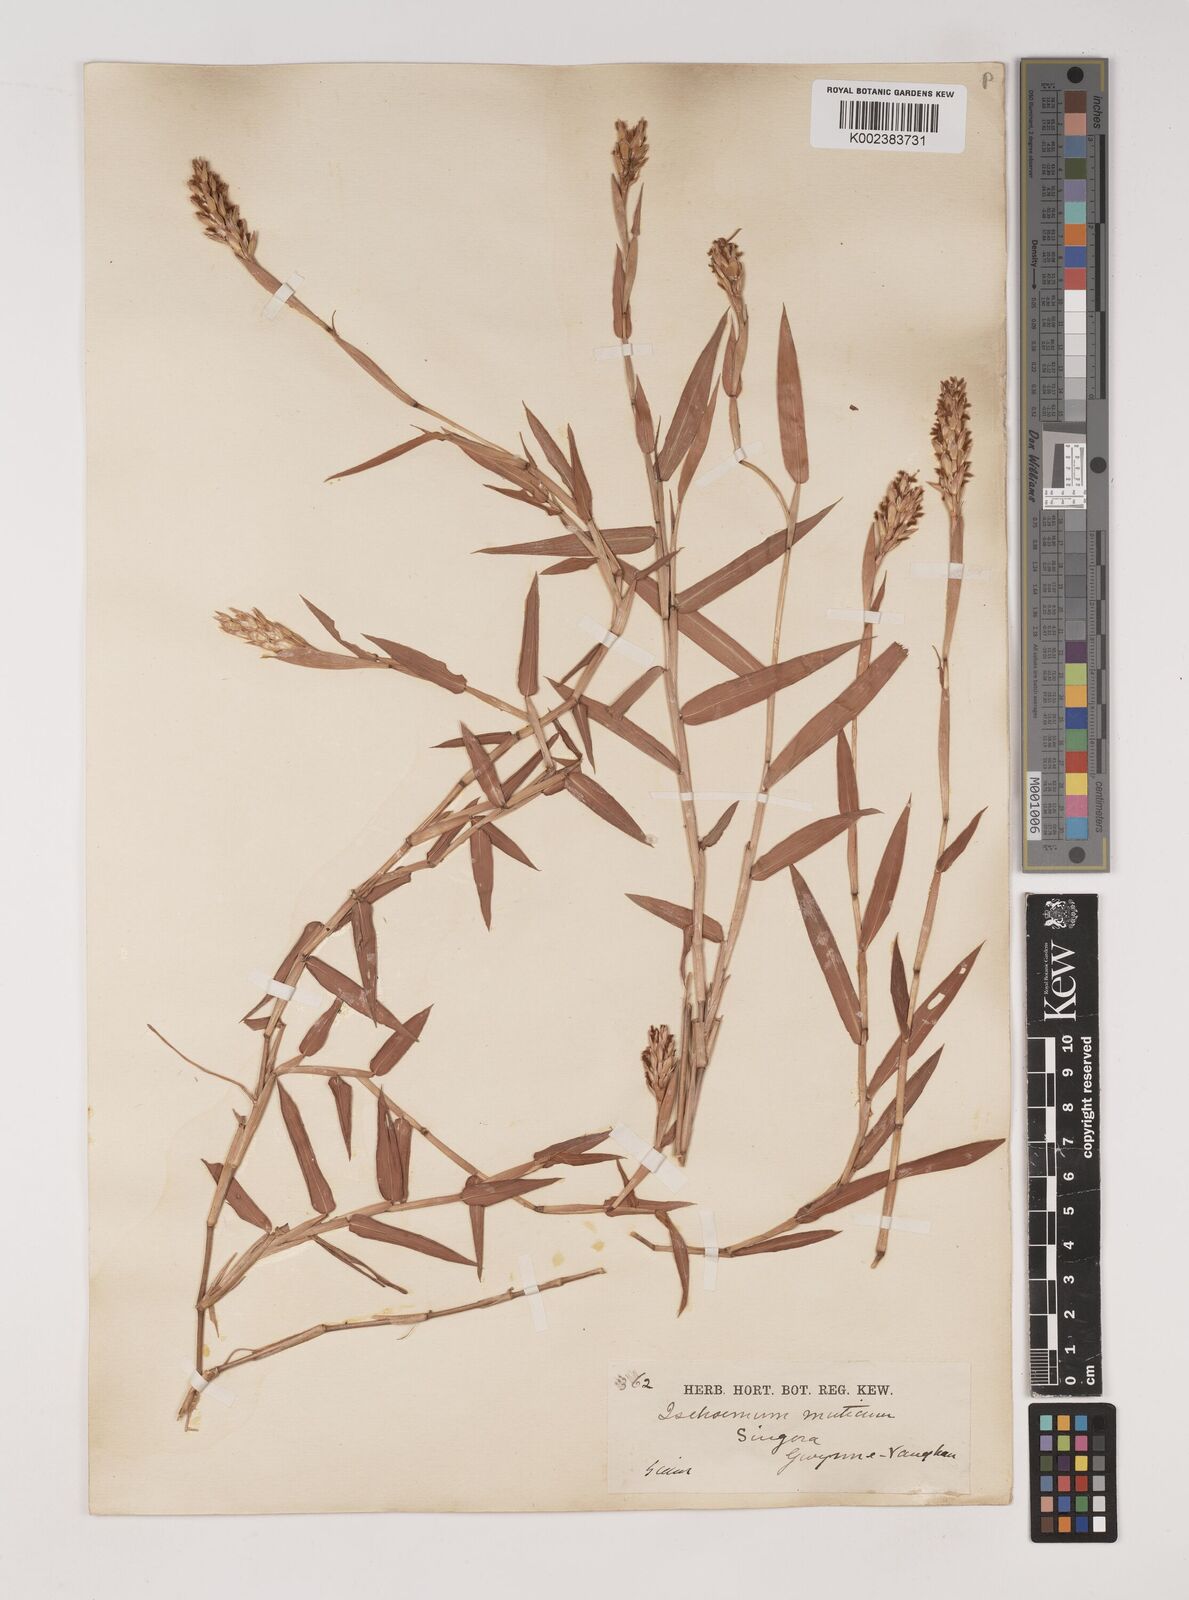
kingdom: Plantae
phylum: Tracheophyta
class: Liliopsida
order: Poales
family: Poaceae
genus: Ischaemum
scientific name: Ischaemum muticum
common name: Drought grass
